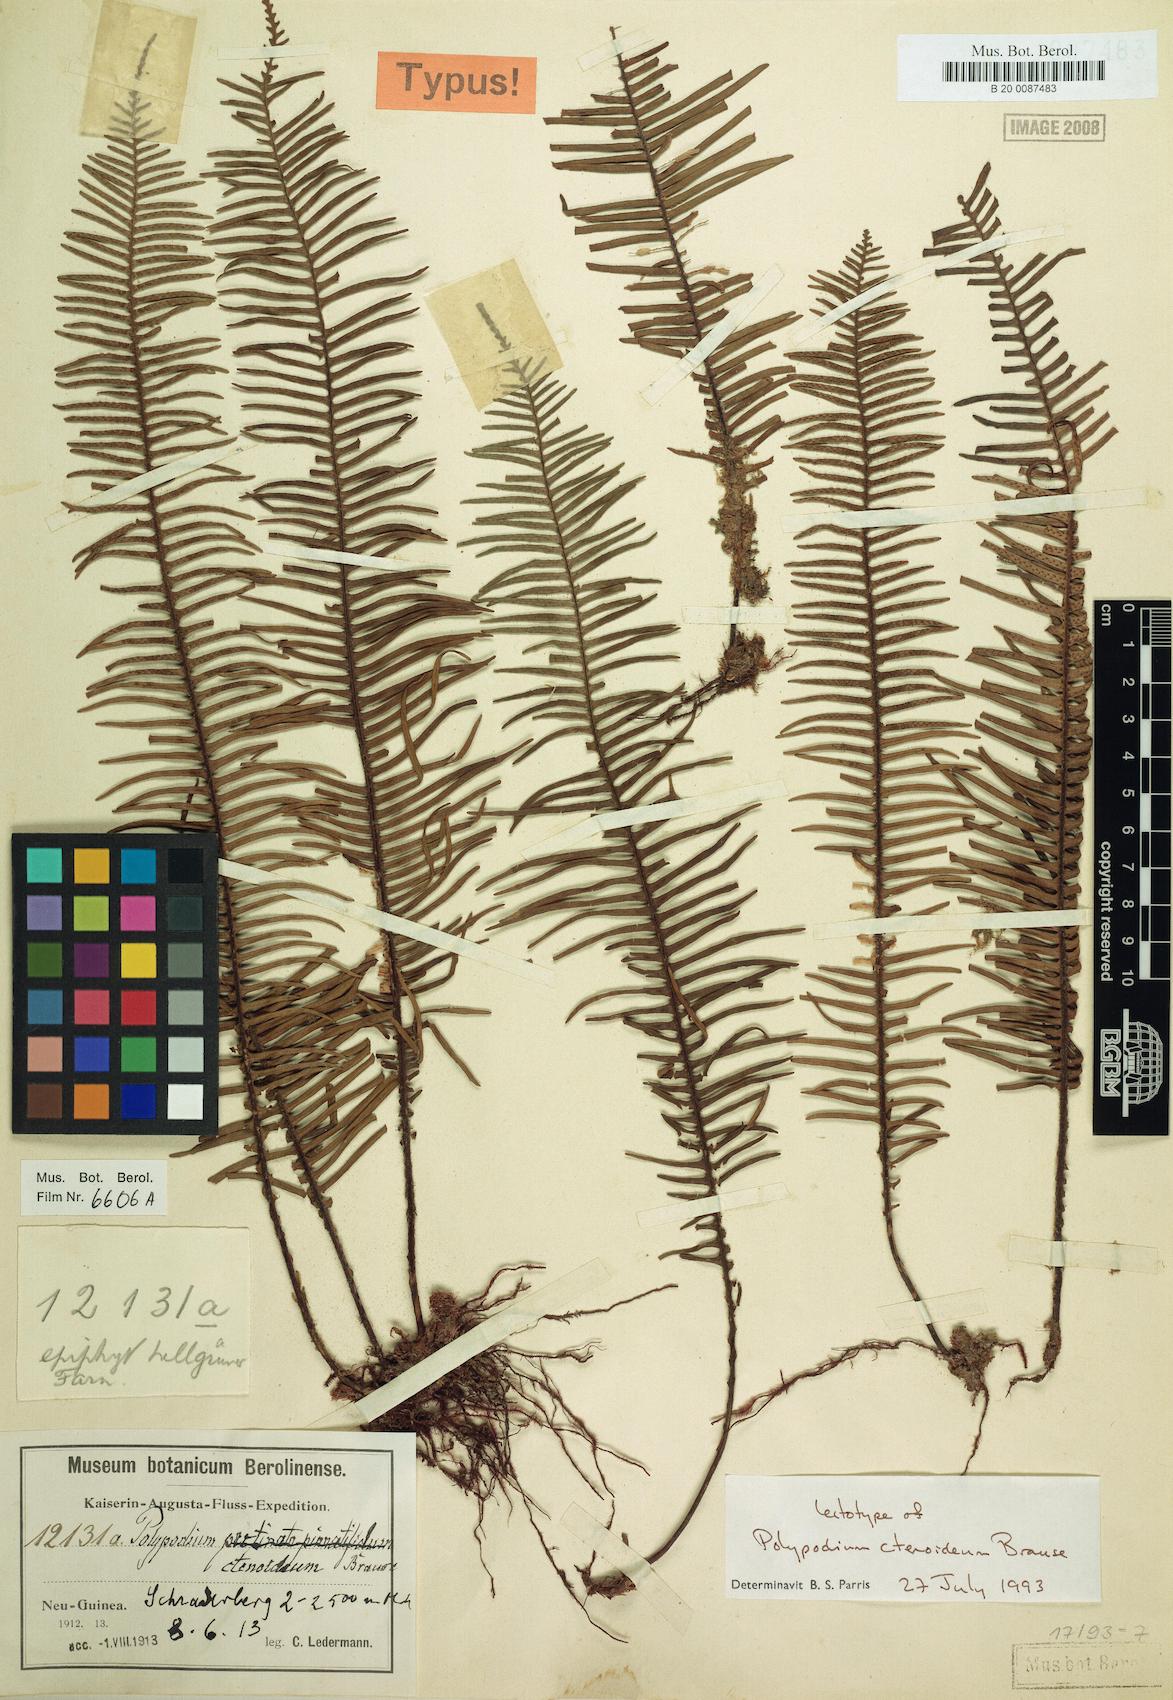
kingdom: Plantae
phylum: Tracheophyta
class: Polypodiopsida
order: Polypodiales
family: Polypodiaceae
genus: Oreogrammitis
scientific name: Oreogrammitis ctenoidea
